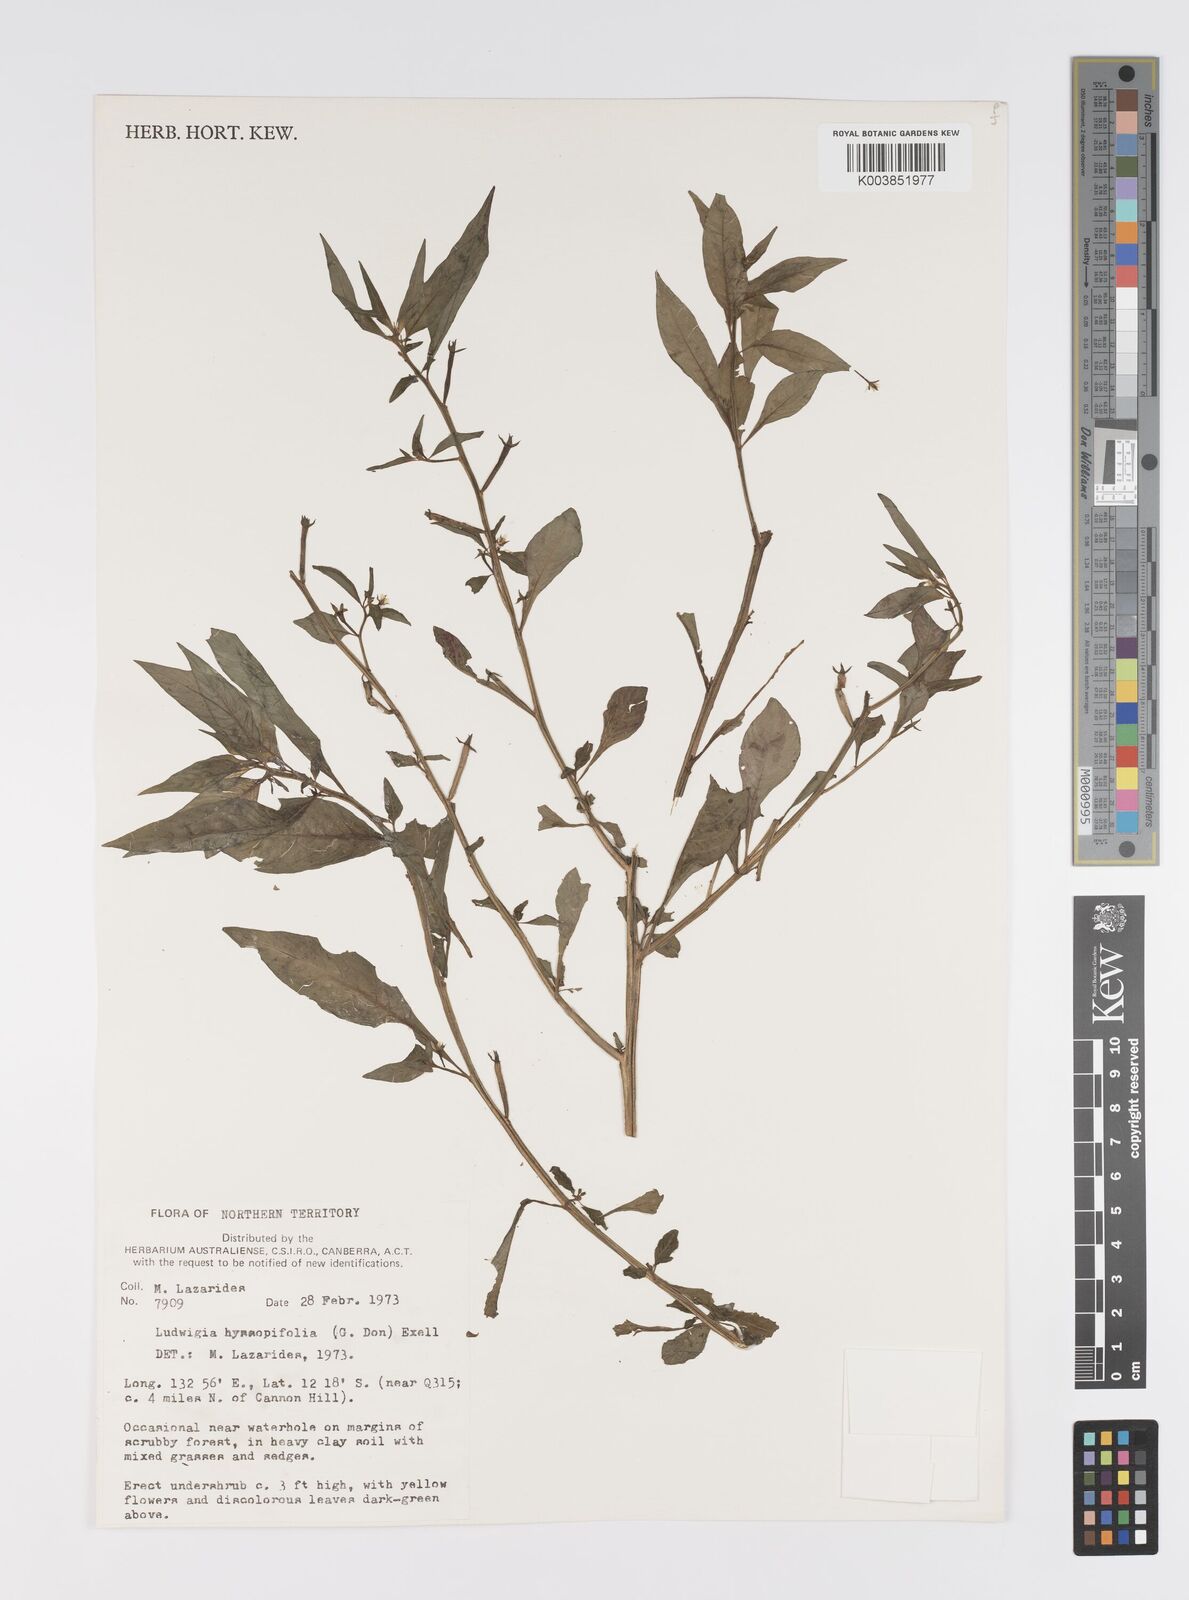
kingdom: Plantae
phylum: Tracheophyta
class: Magnoliopsida
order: Myrtales
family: Onagraceae
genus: Ludwigia
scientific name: Ludwigia hyssopifolia
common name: Linear leaf water primrose
